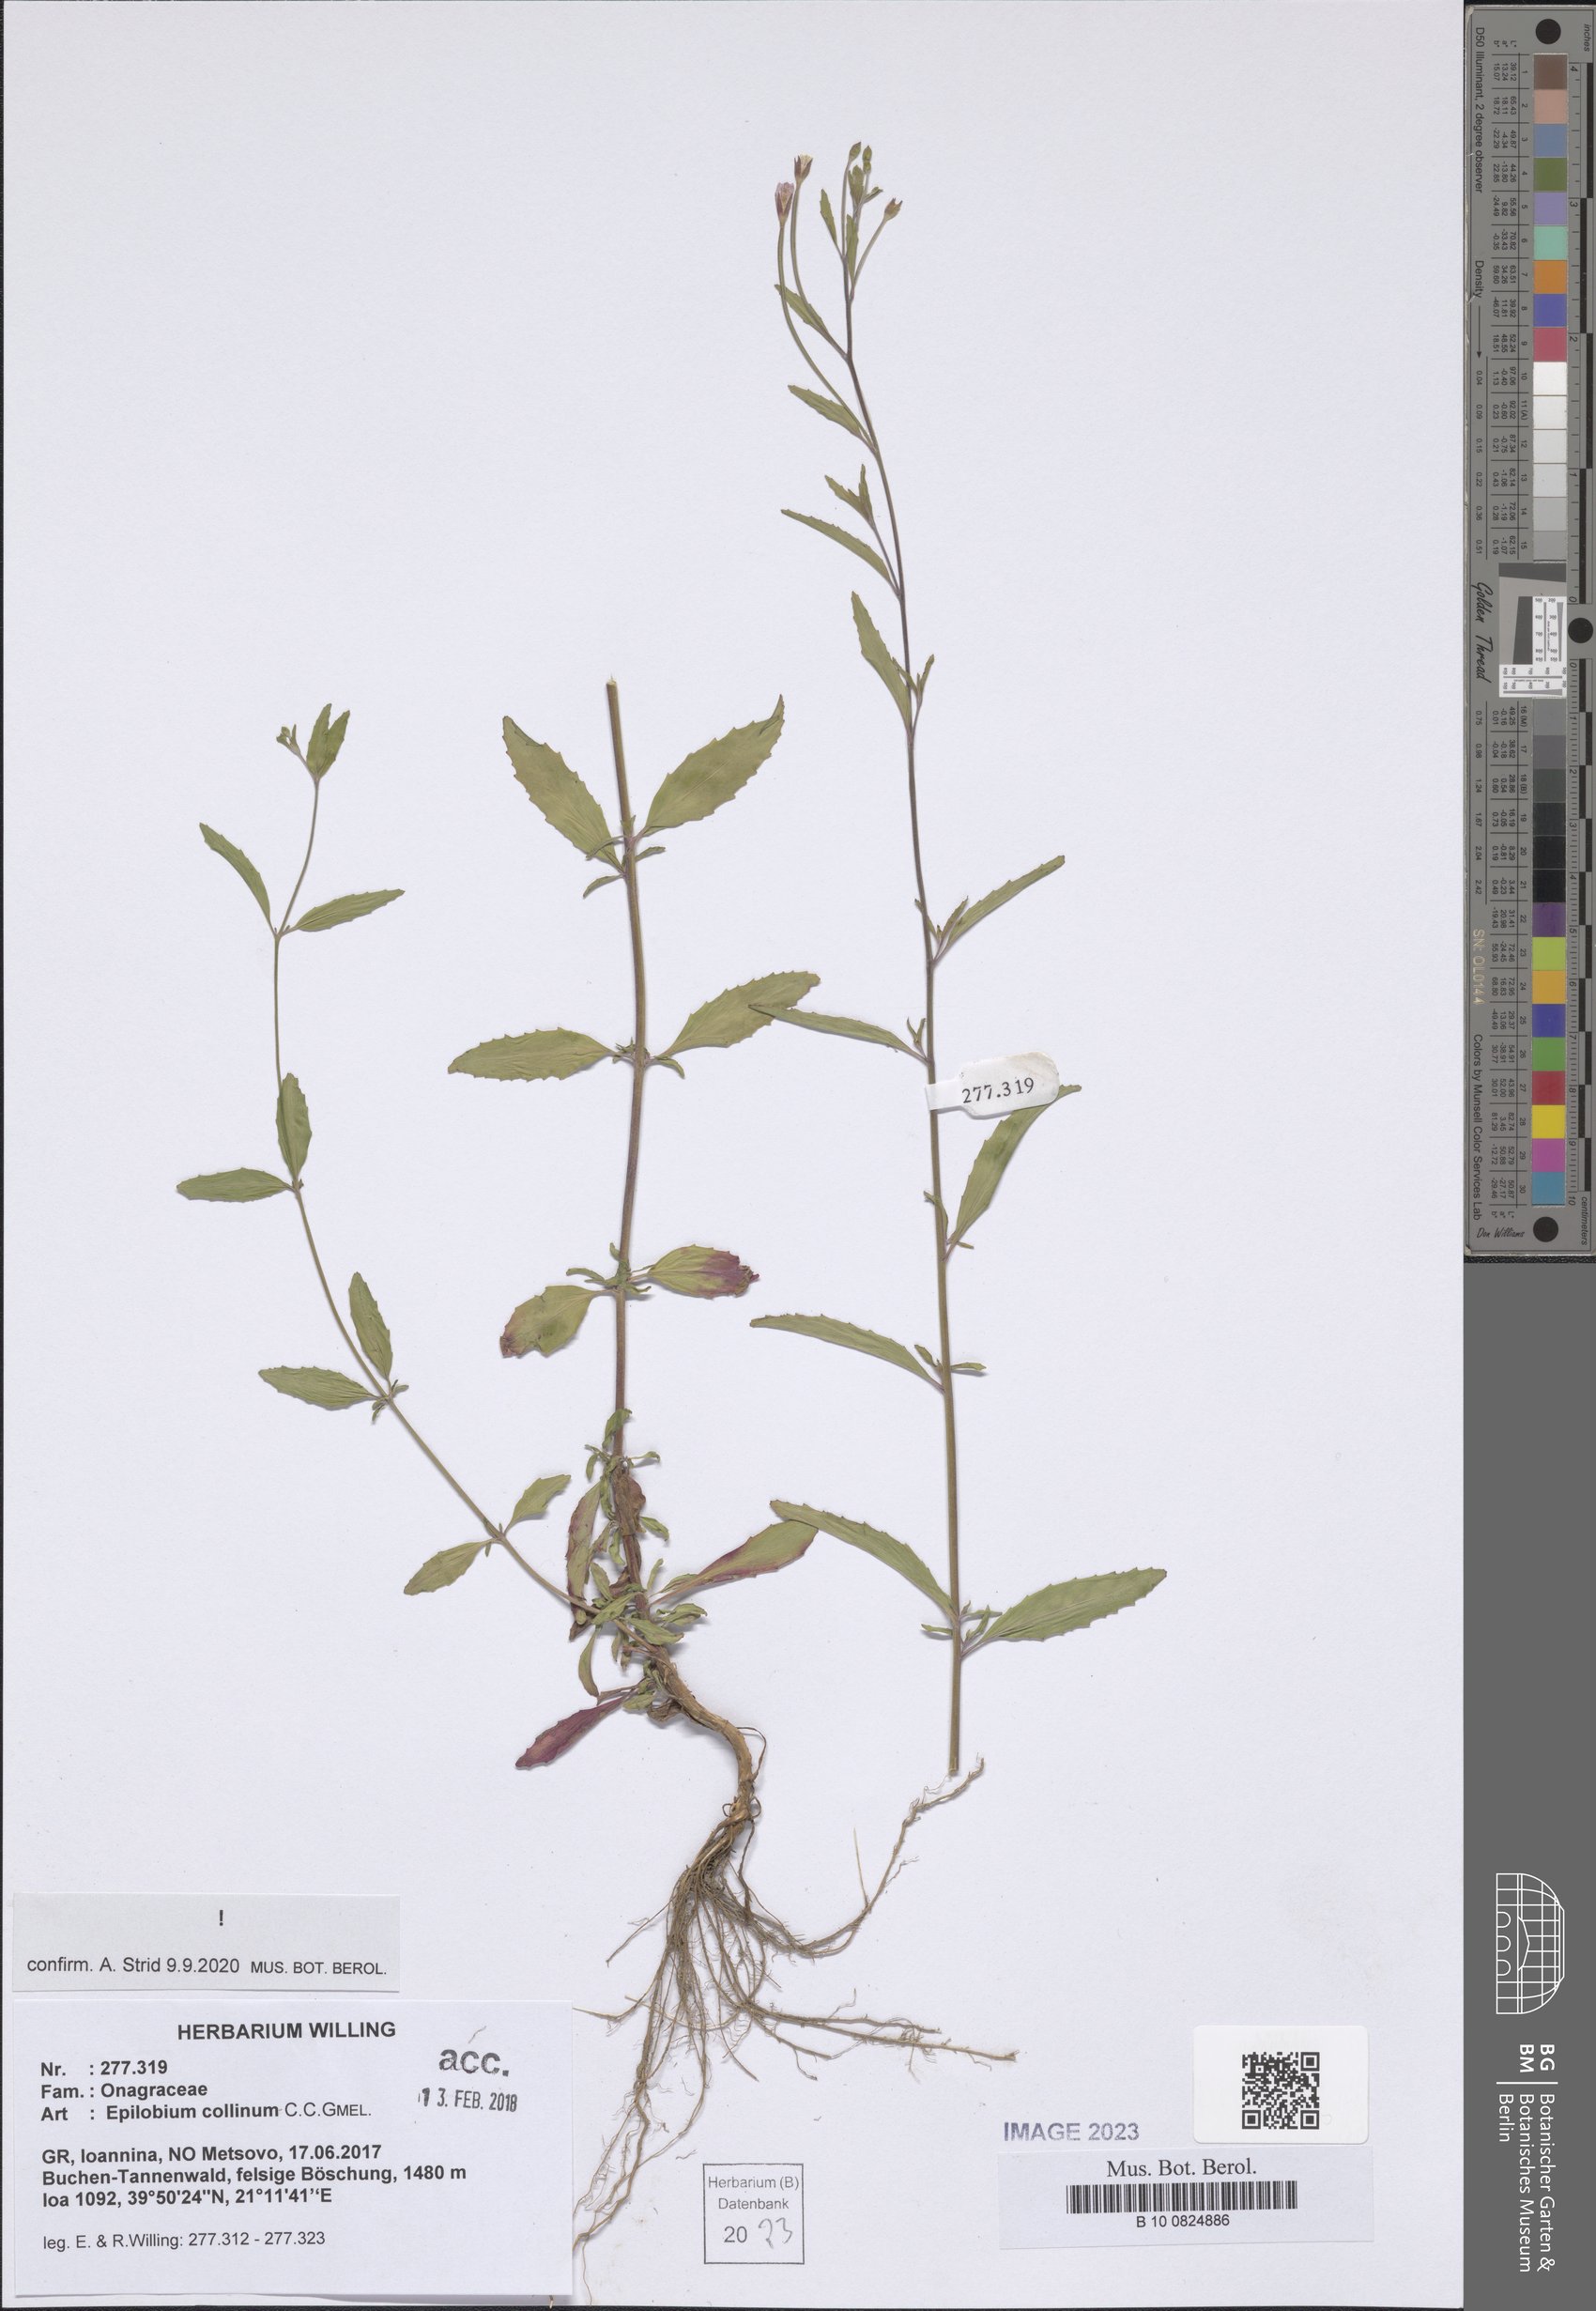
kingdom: Plantae
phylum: Tracheophyta
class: Magnoliopsida
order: Myrtales
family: Onagraceae
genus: Epilobium
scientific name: Epilobium collinum
